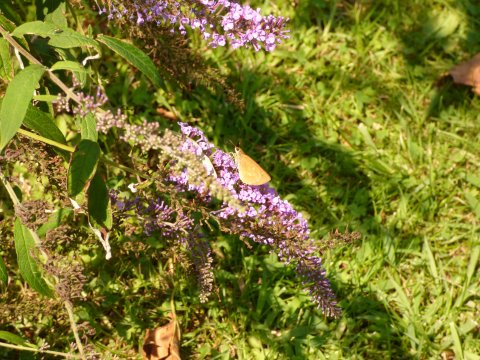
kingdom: Animalia
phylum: Arthropoda
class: Insecta
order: Lepidoptera
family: Hesperiidae
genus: Poanes
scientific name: Poanes viator
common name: Broad-winged Skipper
